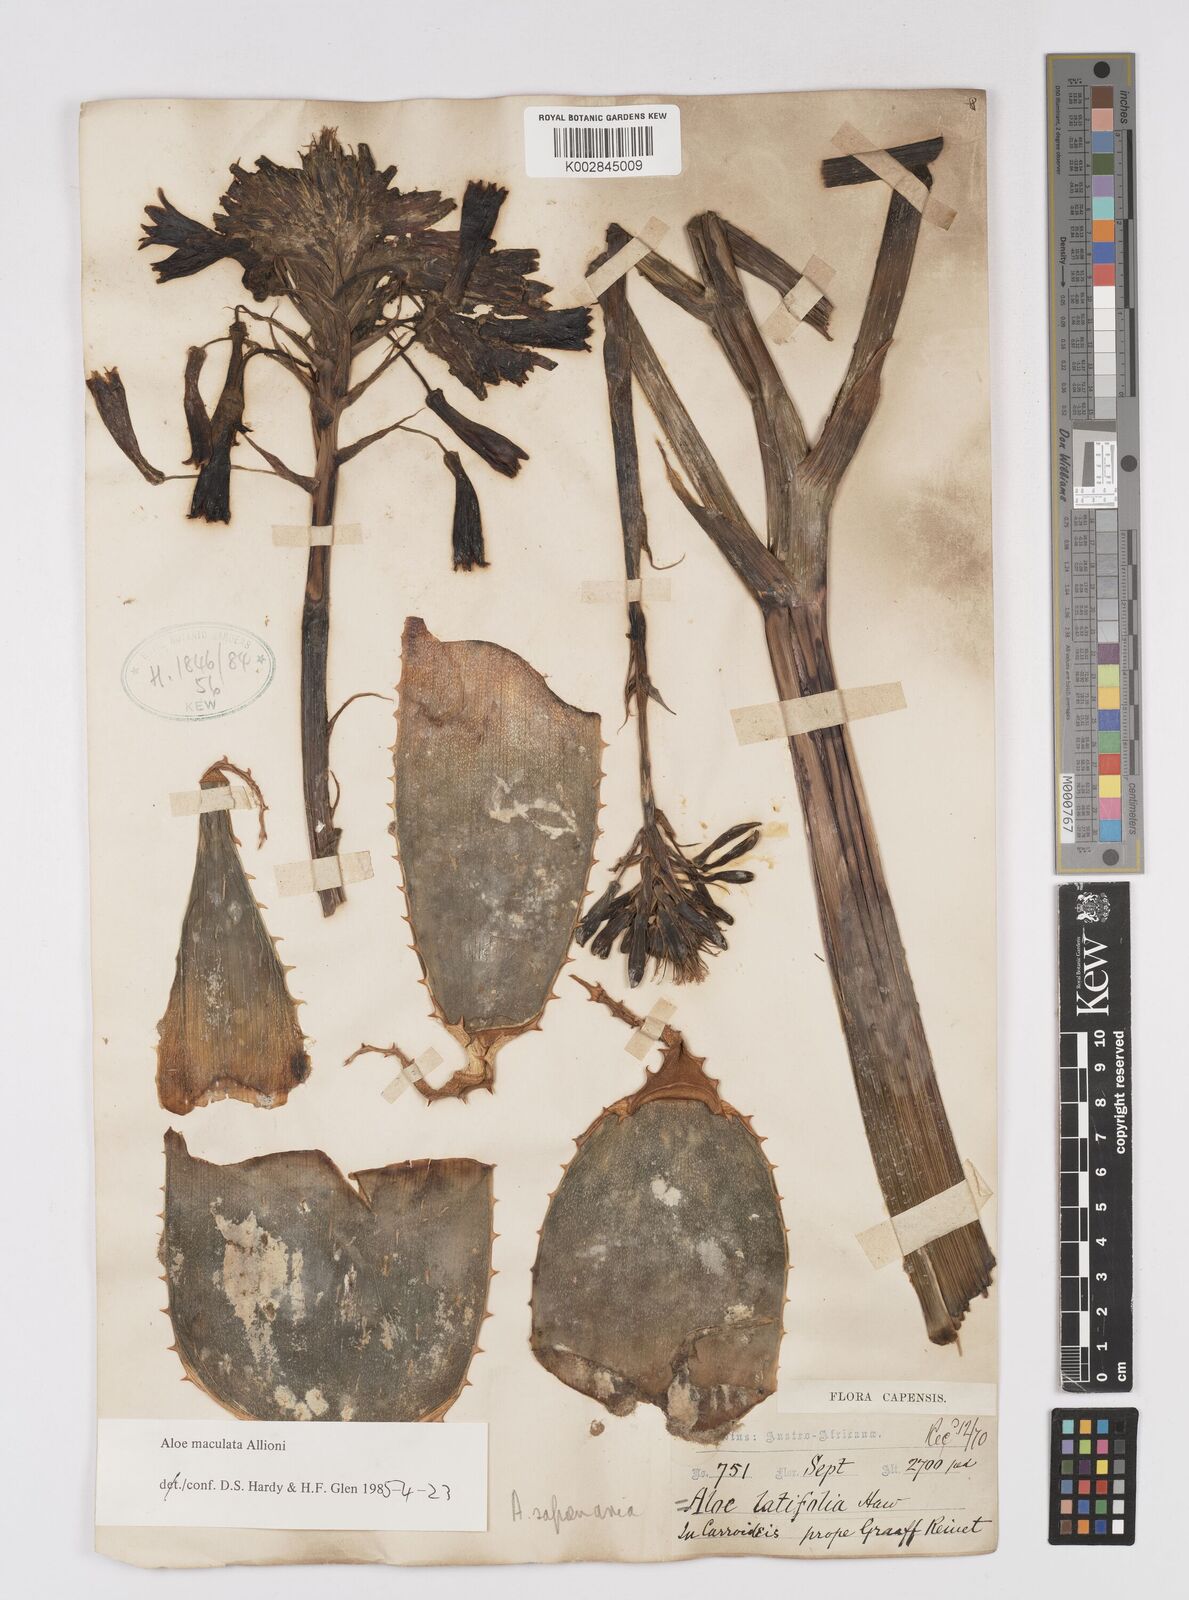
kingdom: Plantae
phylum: Tracheophyta
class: Liliopsida
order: Asparagales
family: Asphodelaceae
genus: Aloe
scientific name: Aloe microstigma
